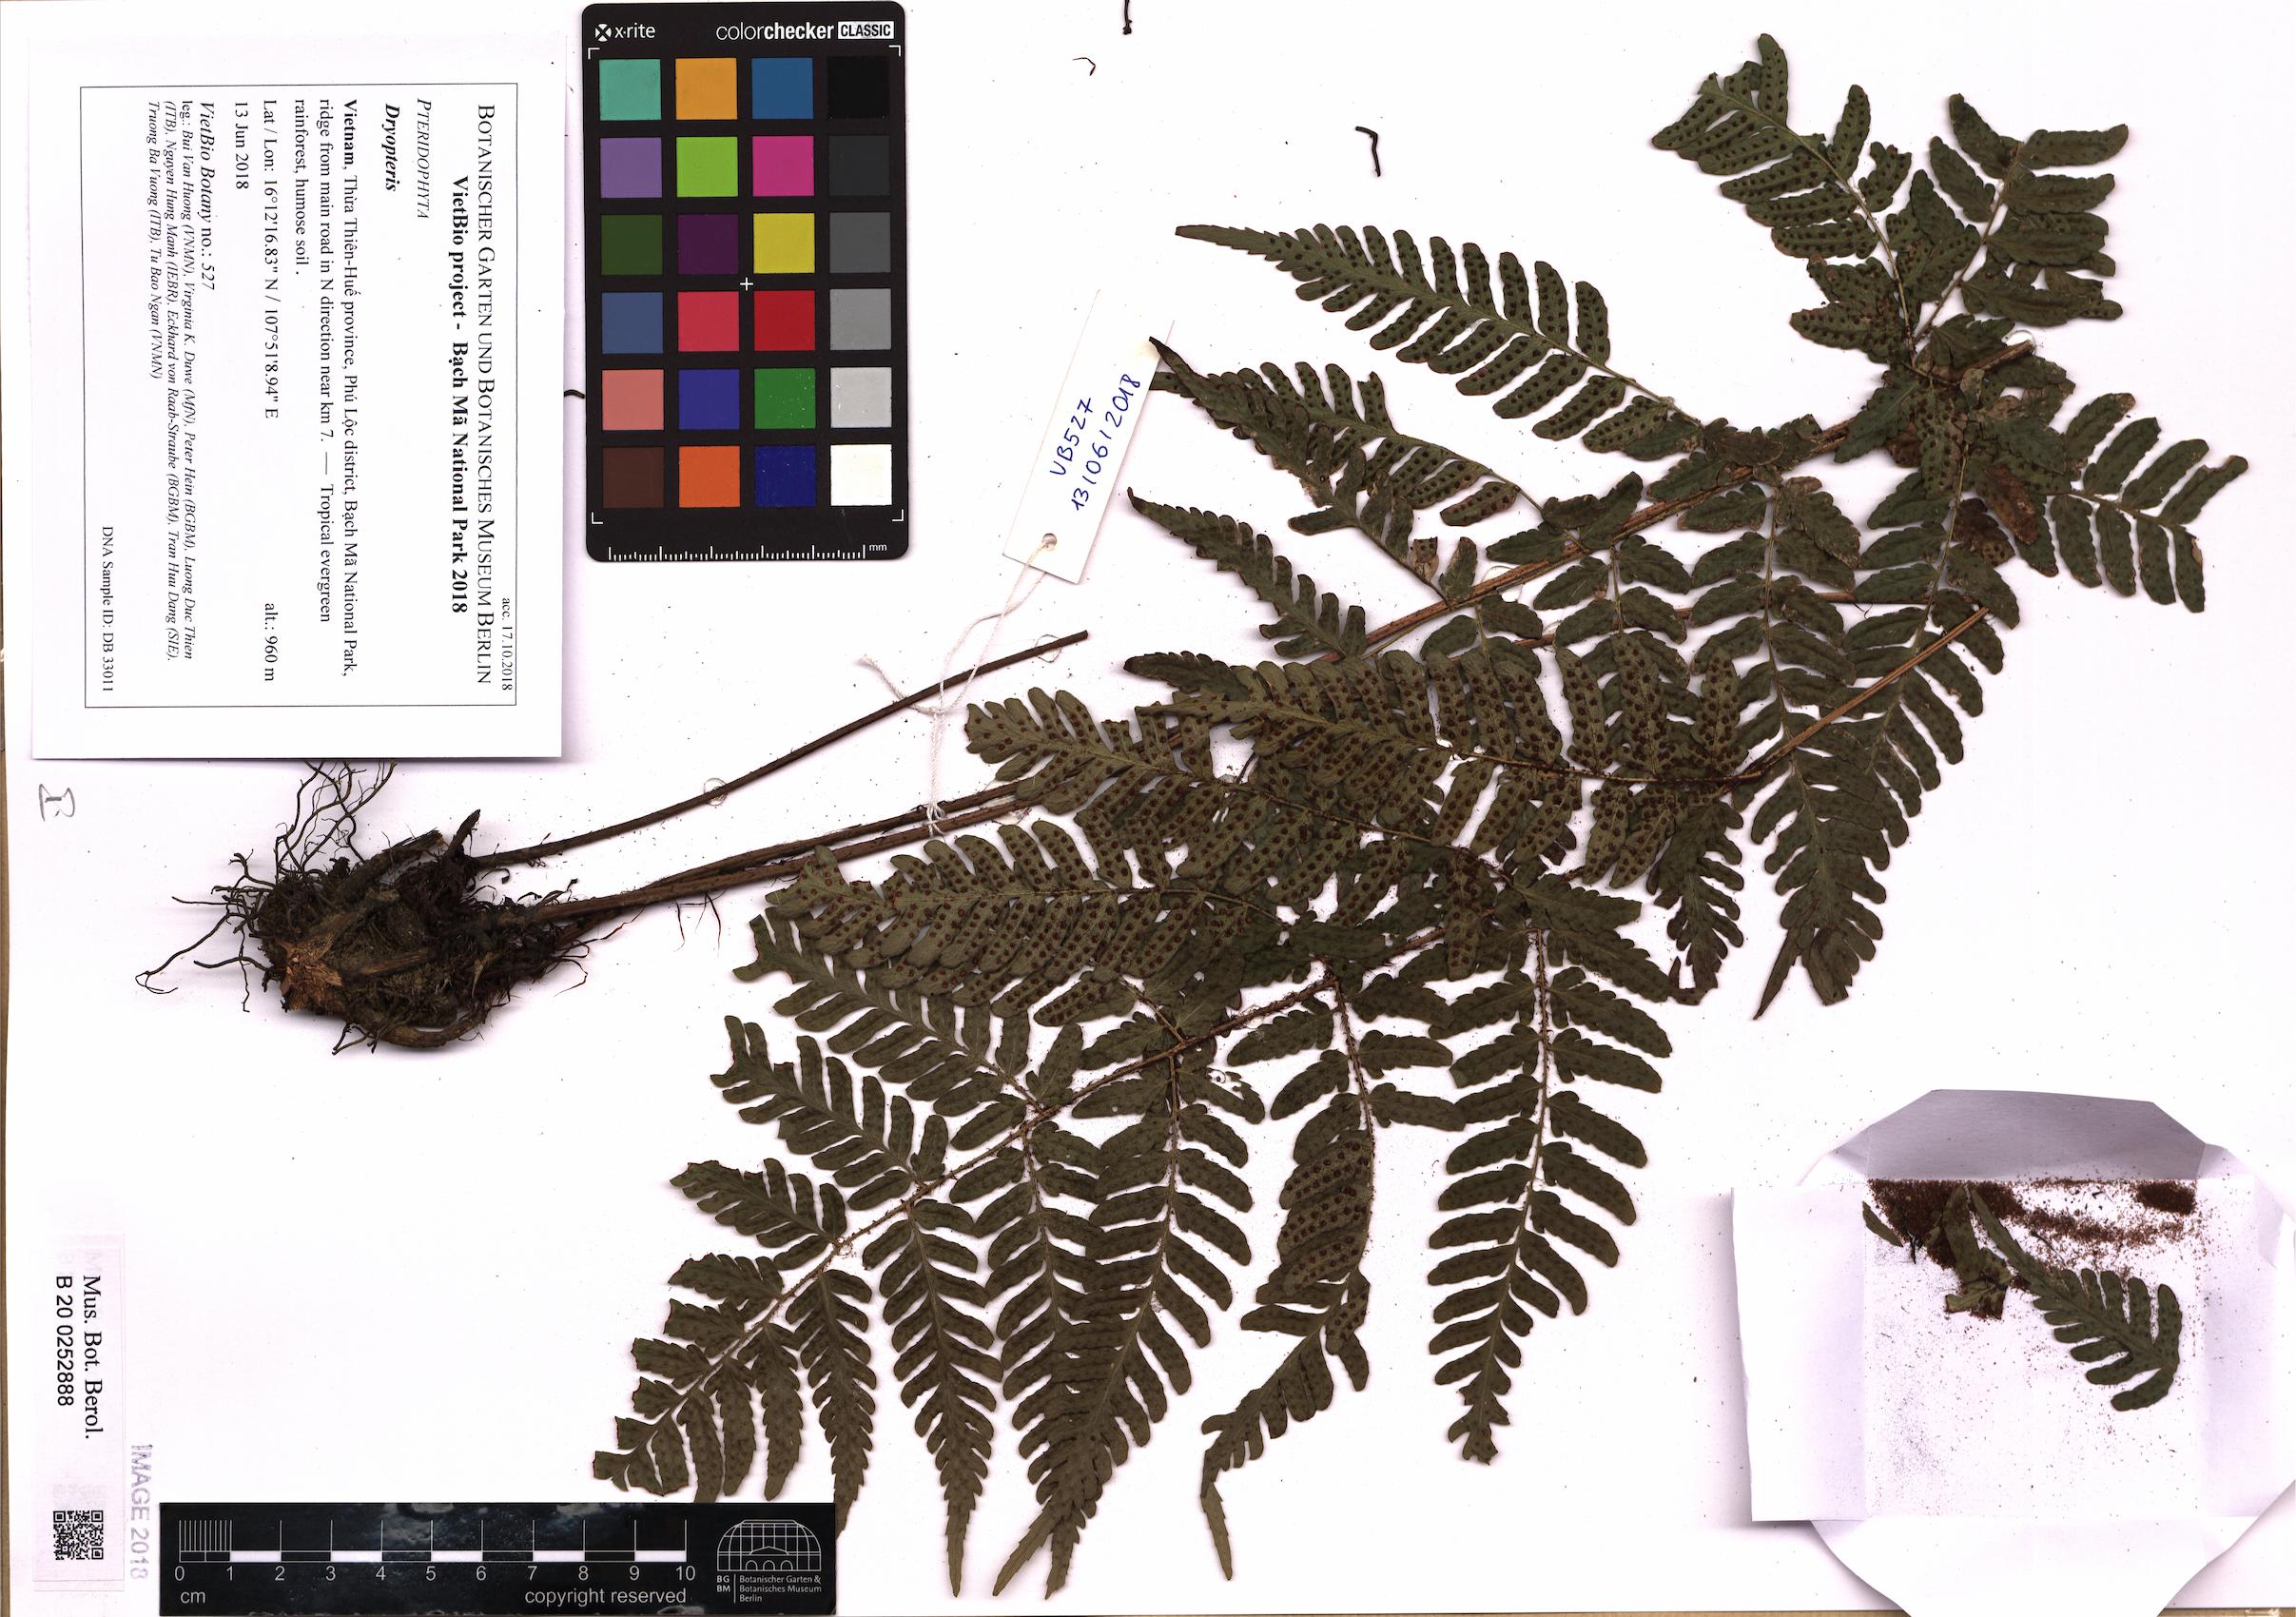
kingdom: Plantae
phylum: Tracheophyta
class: Polypodiopsida
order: Polypodiales
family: Dryopteridaceae
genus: Dryopteris
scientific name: Dryopteris
